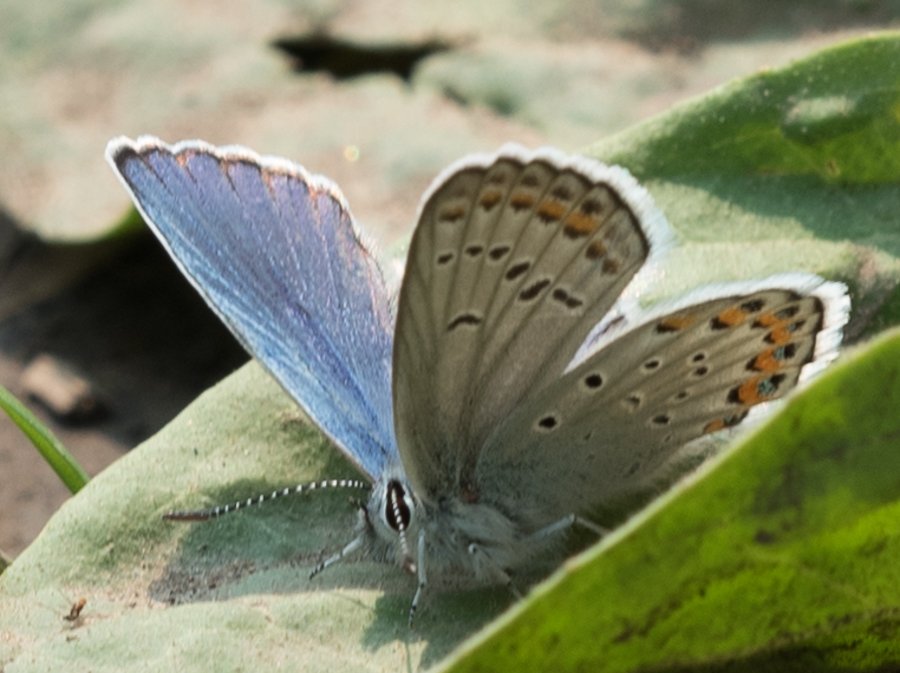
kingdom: Animalia
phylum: Arthropoda
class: Insecta
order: Lepidoptera
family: Lycaenidae
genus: Lycaeides
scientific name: Lycaeides idas
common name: Northern Blue
